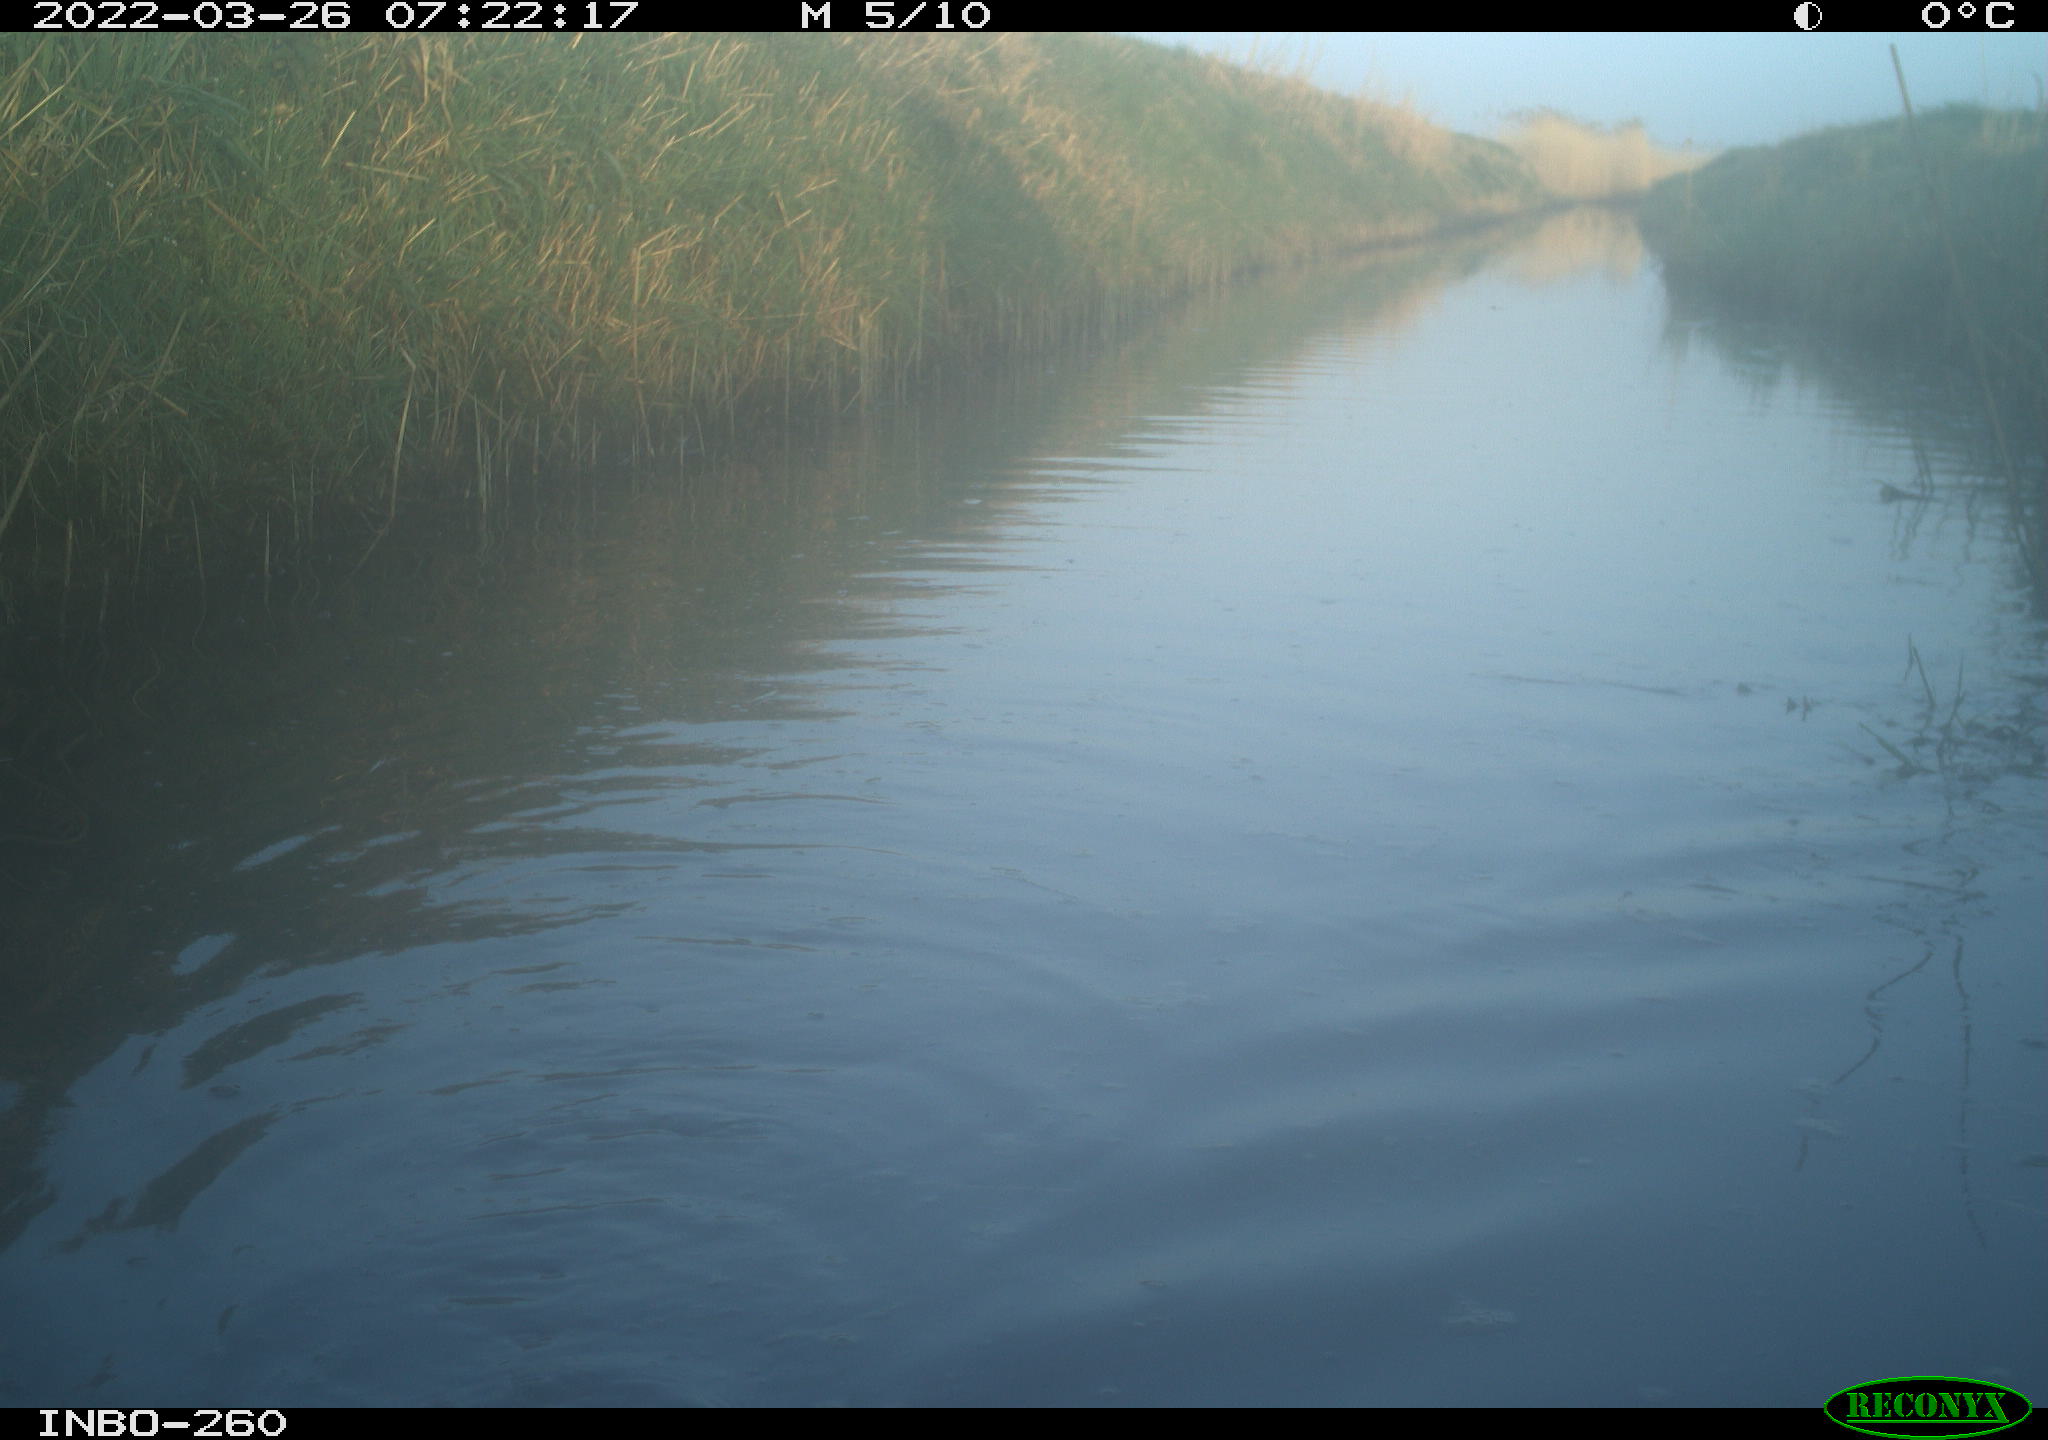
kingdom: Animalia
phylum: Chordata
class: Mammalia
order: Rodentia
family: Cricetidae
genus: Ondatra
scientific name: Ondatra zibethicus
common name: Muskrat
